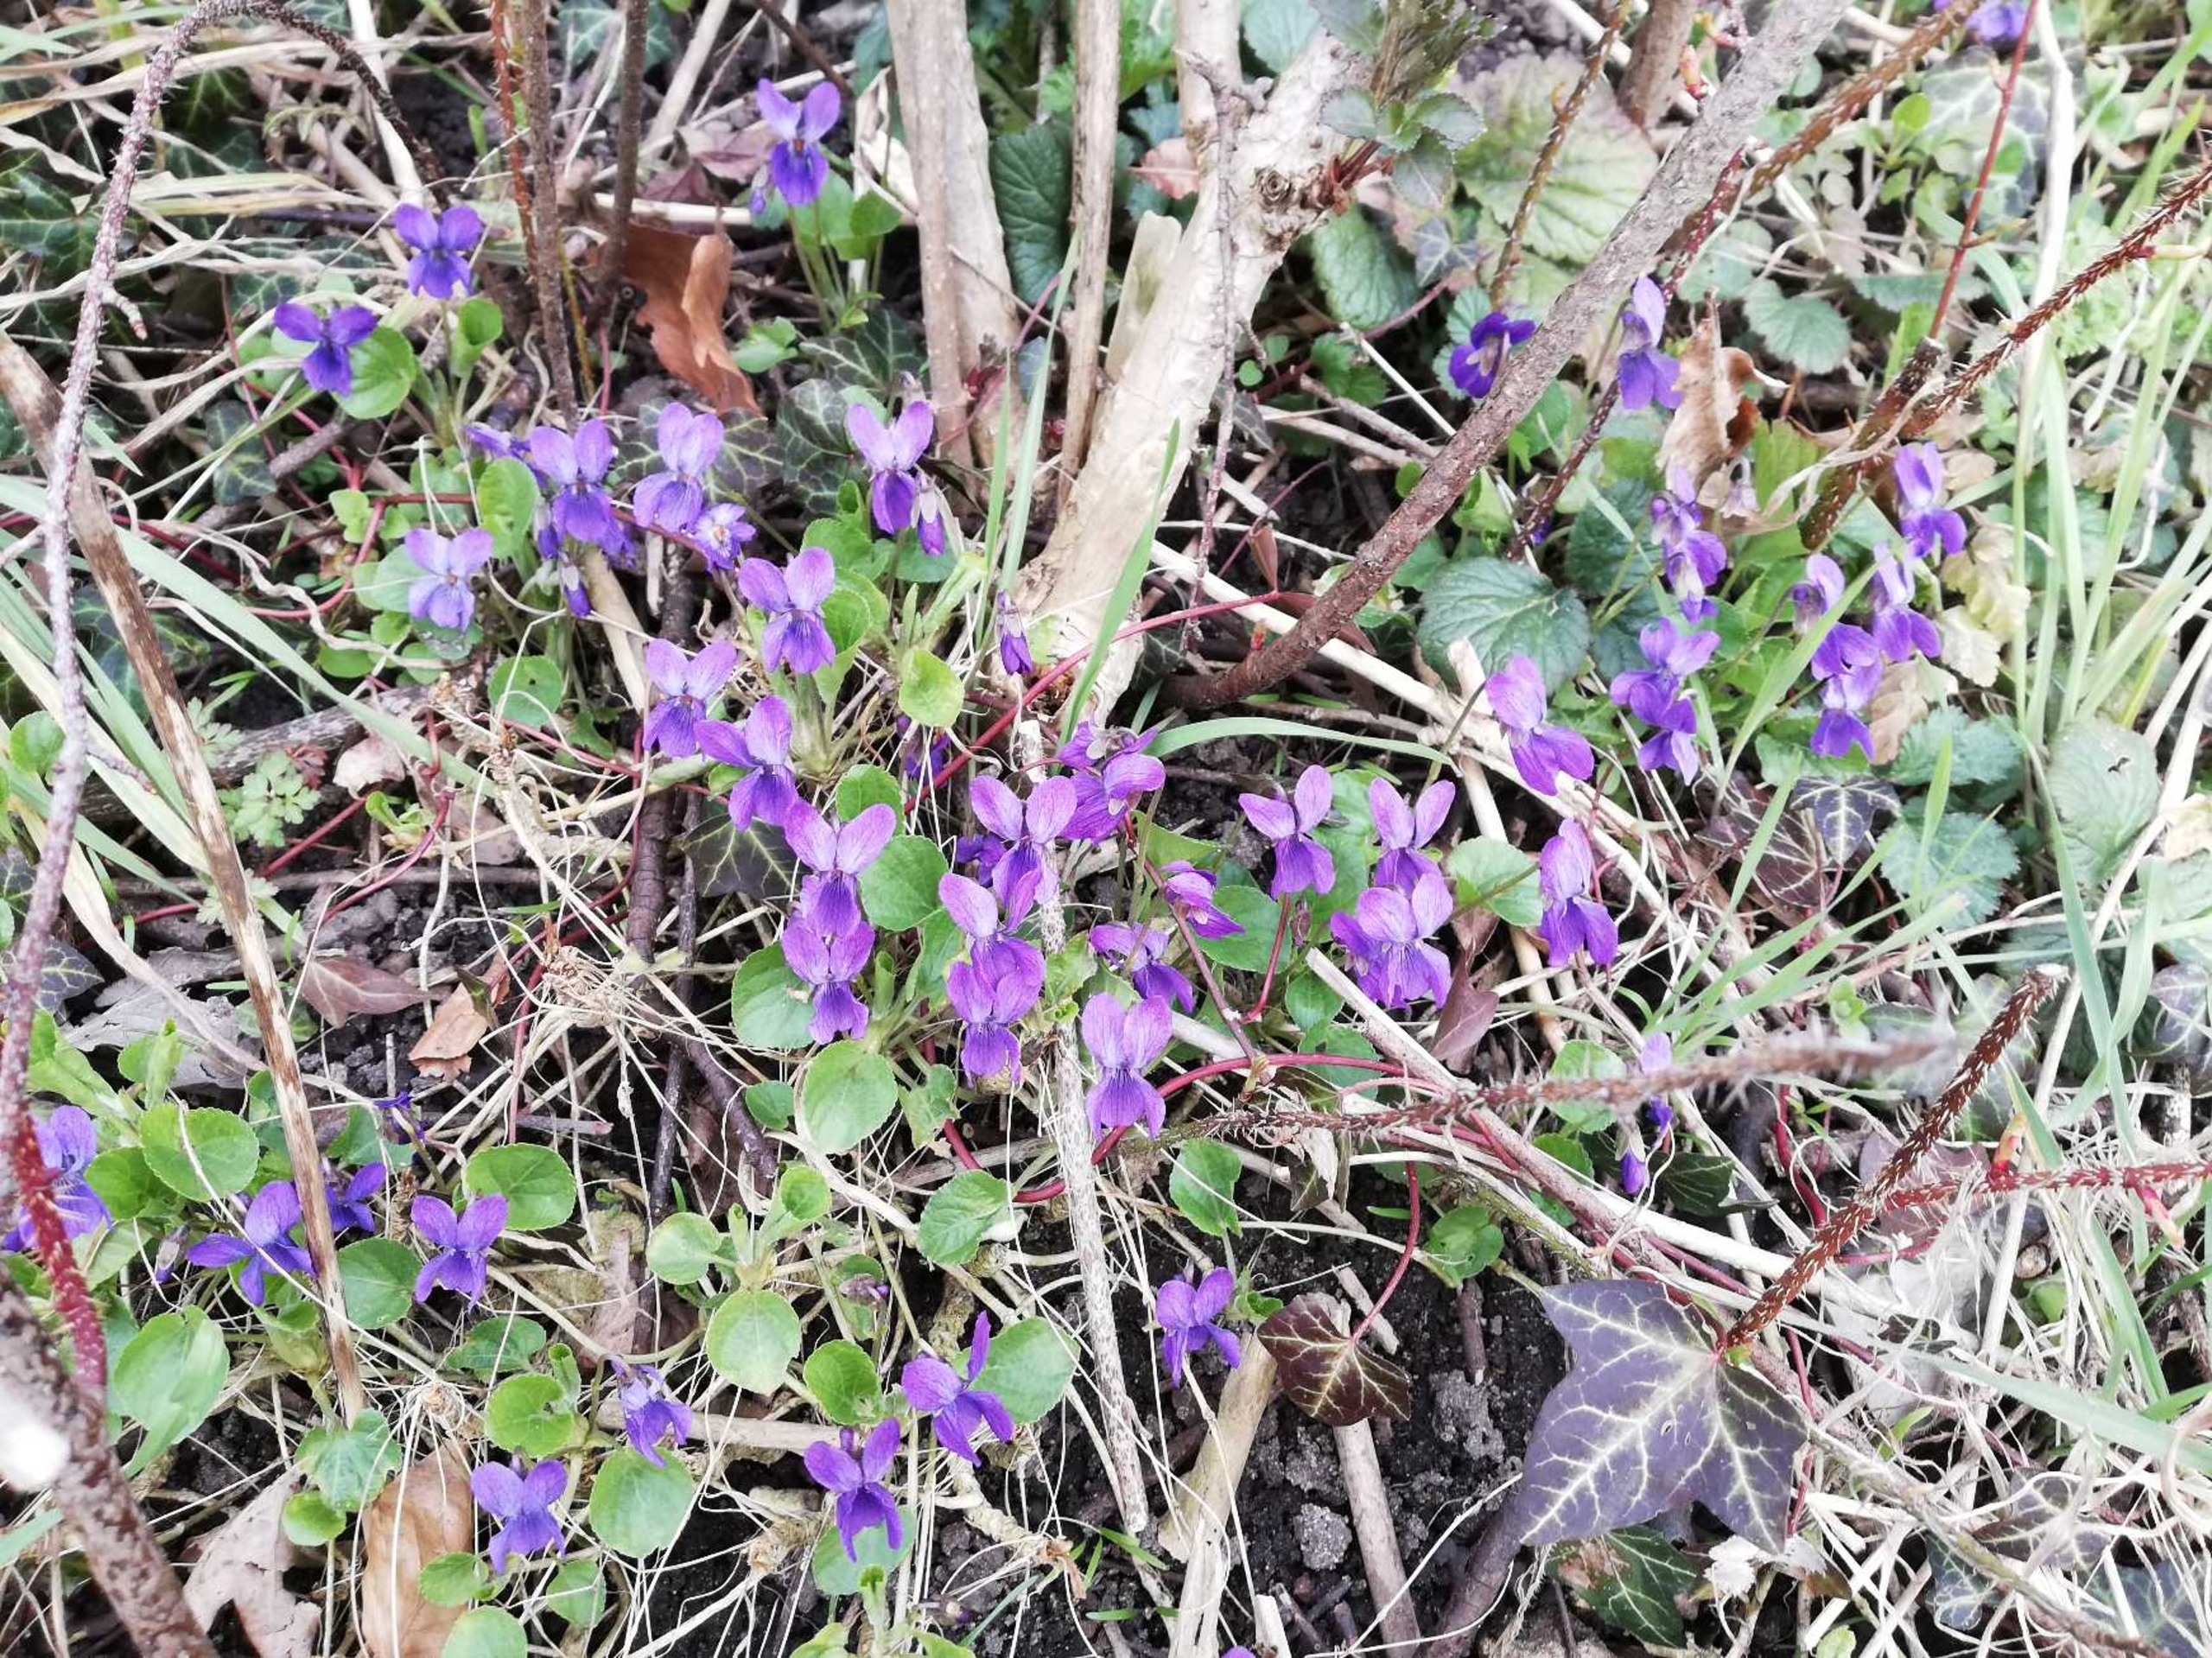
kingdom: Plantae
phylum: Tracheophyta
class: Magnoliopsida
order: Malpighiales
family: Violaceae
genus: Viola
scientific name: Viola odorata
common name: Marts-viol
